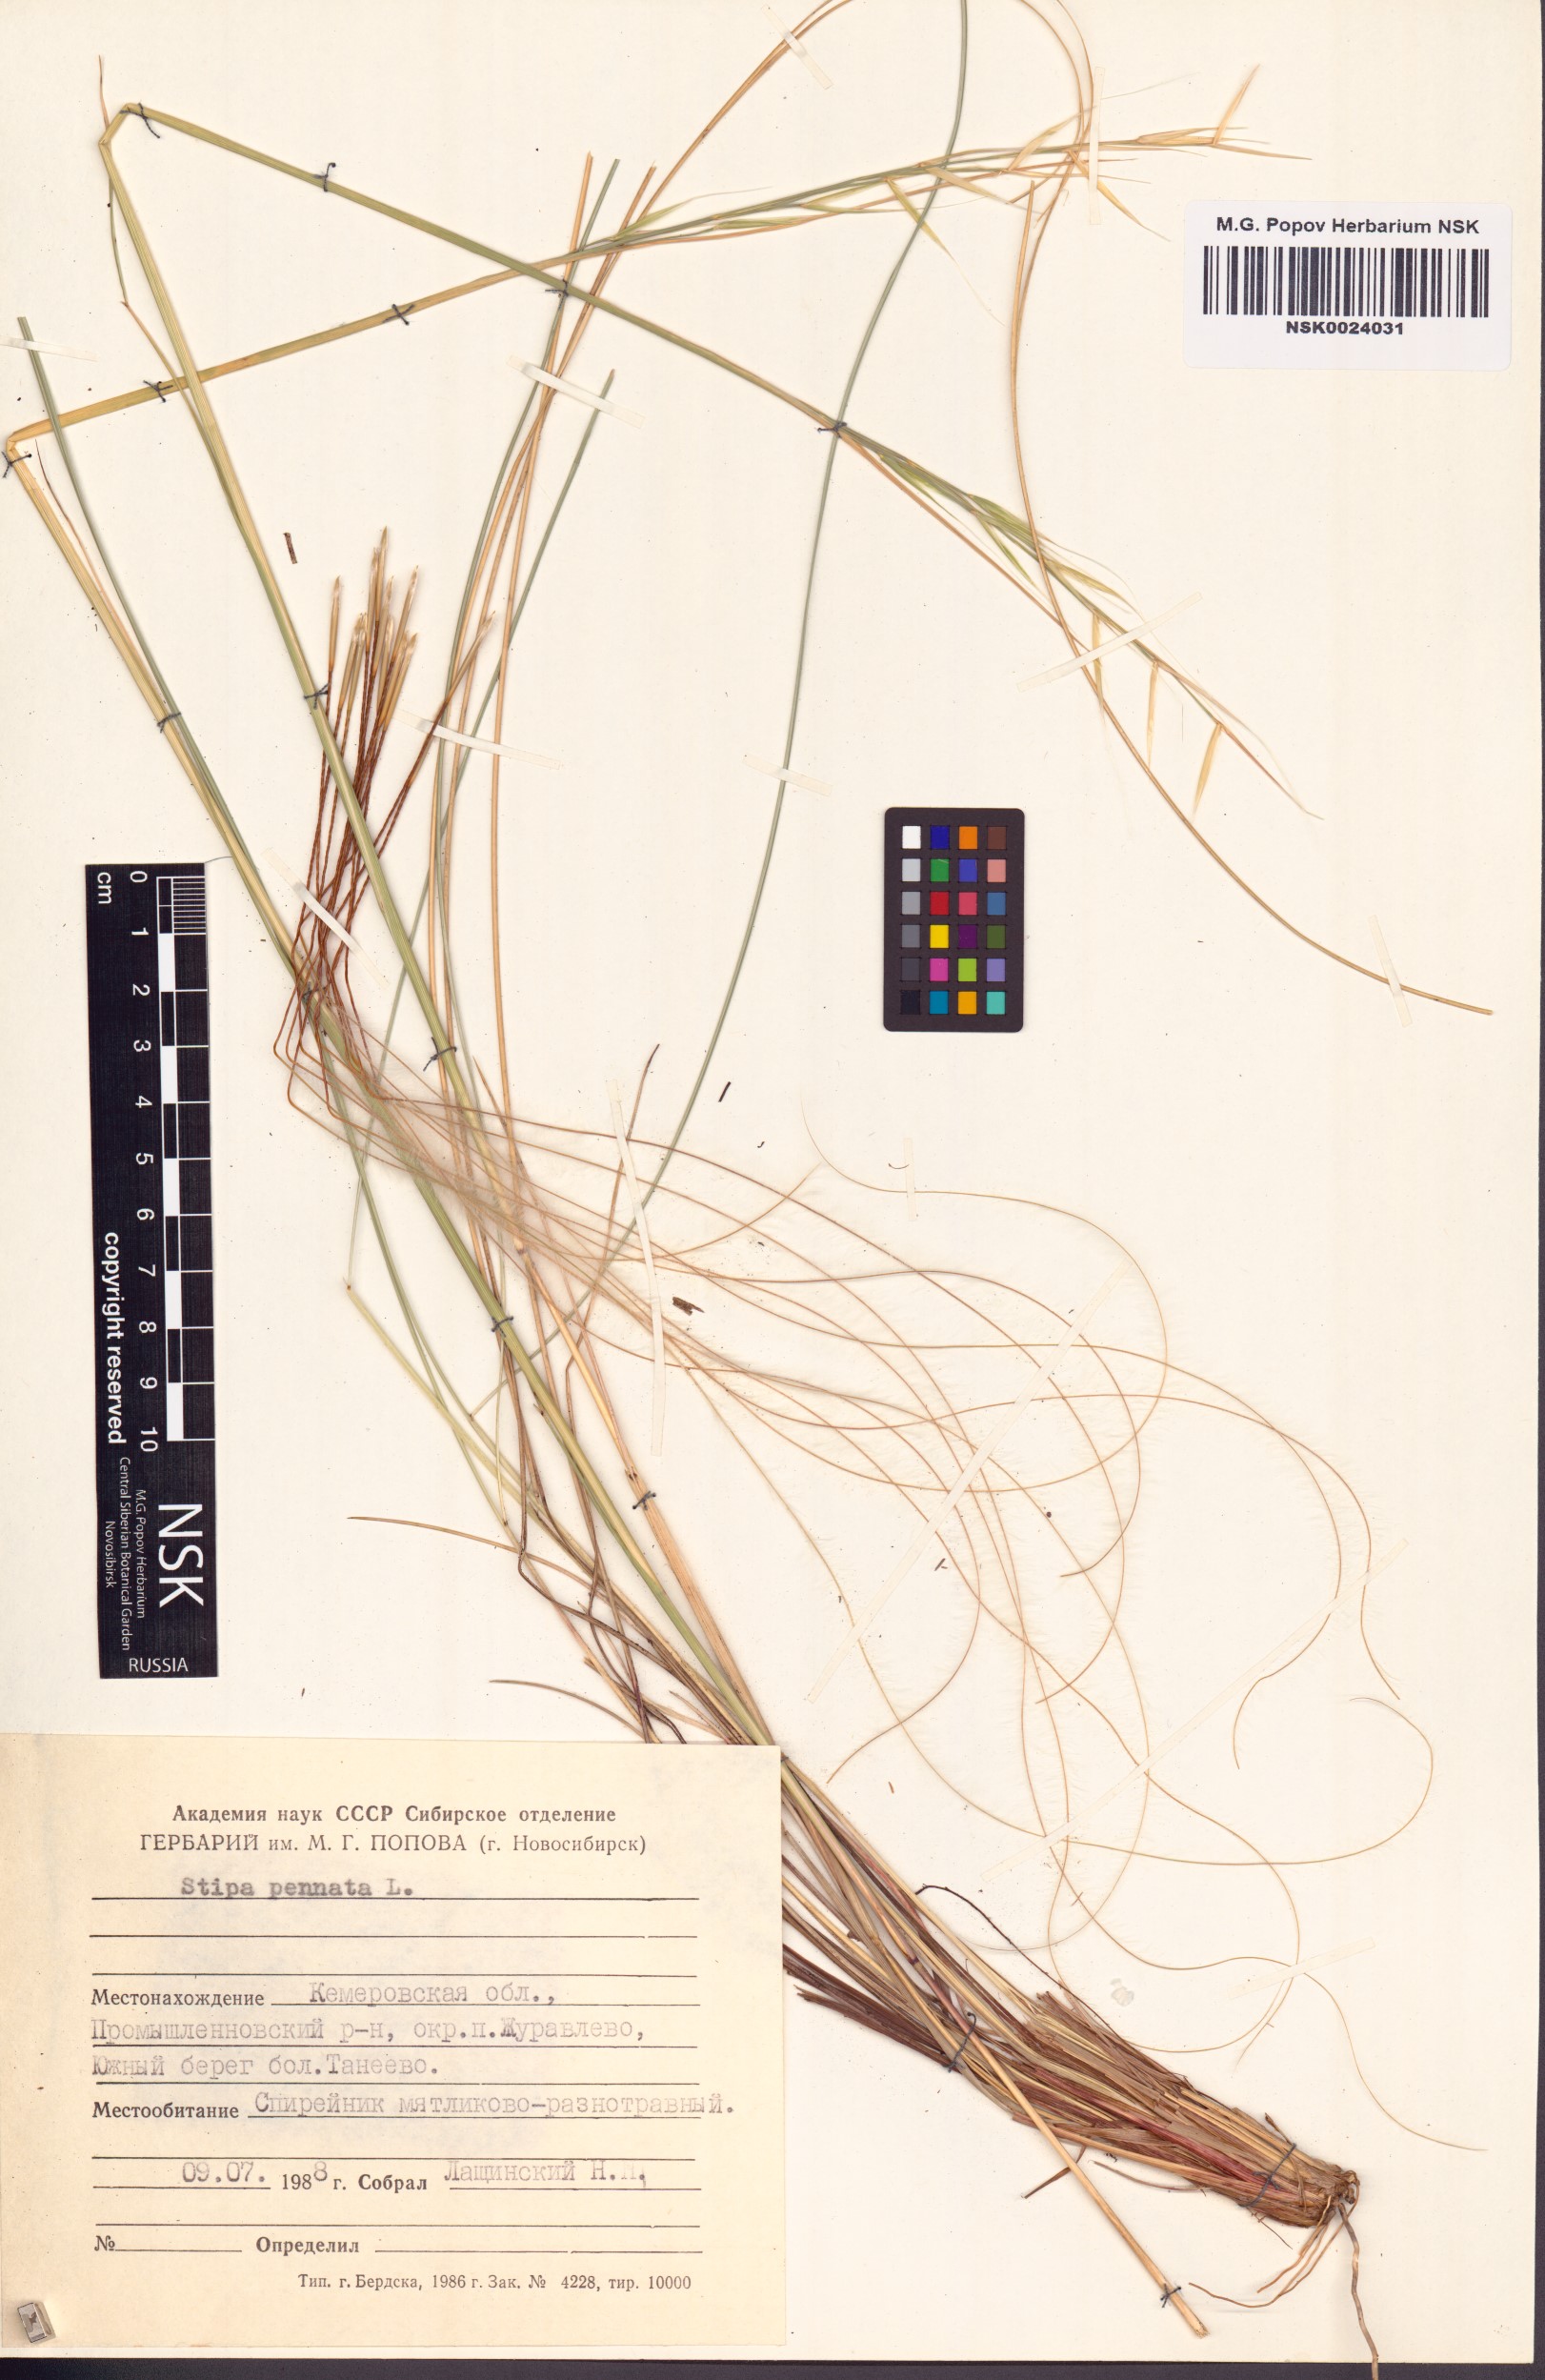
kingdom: Plantae
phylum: Tracheophyta
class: Liliopsida
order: Poales
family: Poaceae
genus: Stipa
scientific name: Stipa pennata
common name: European feather grass
